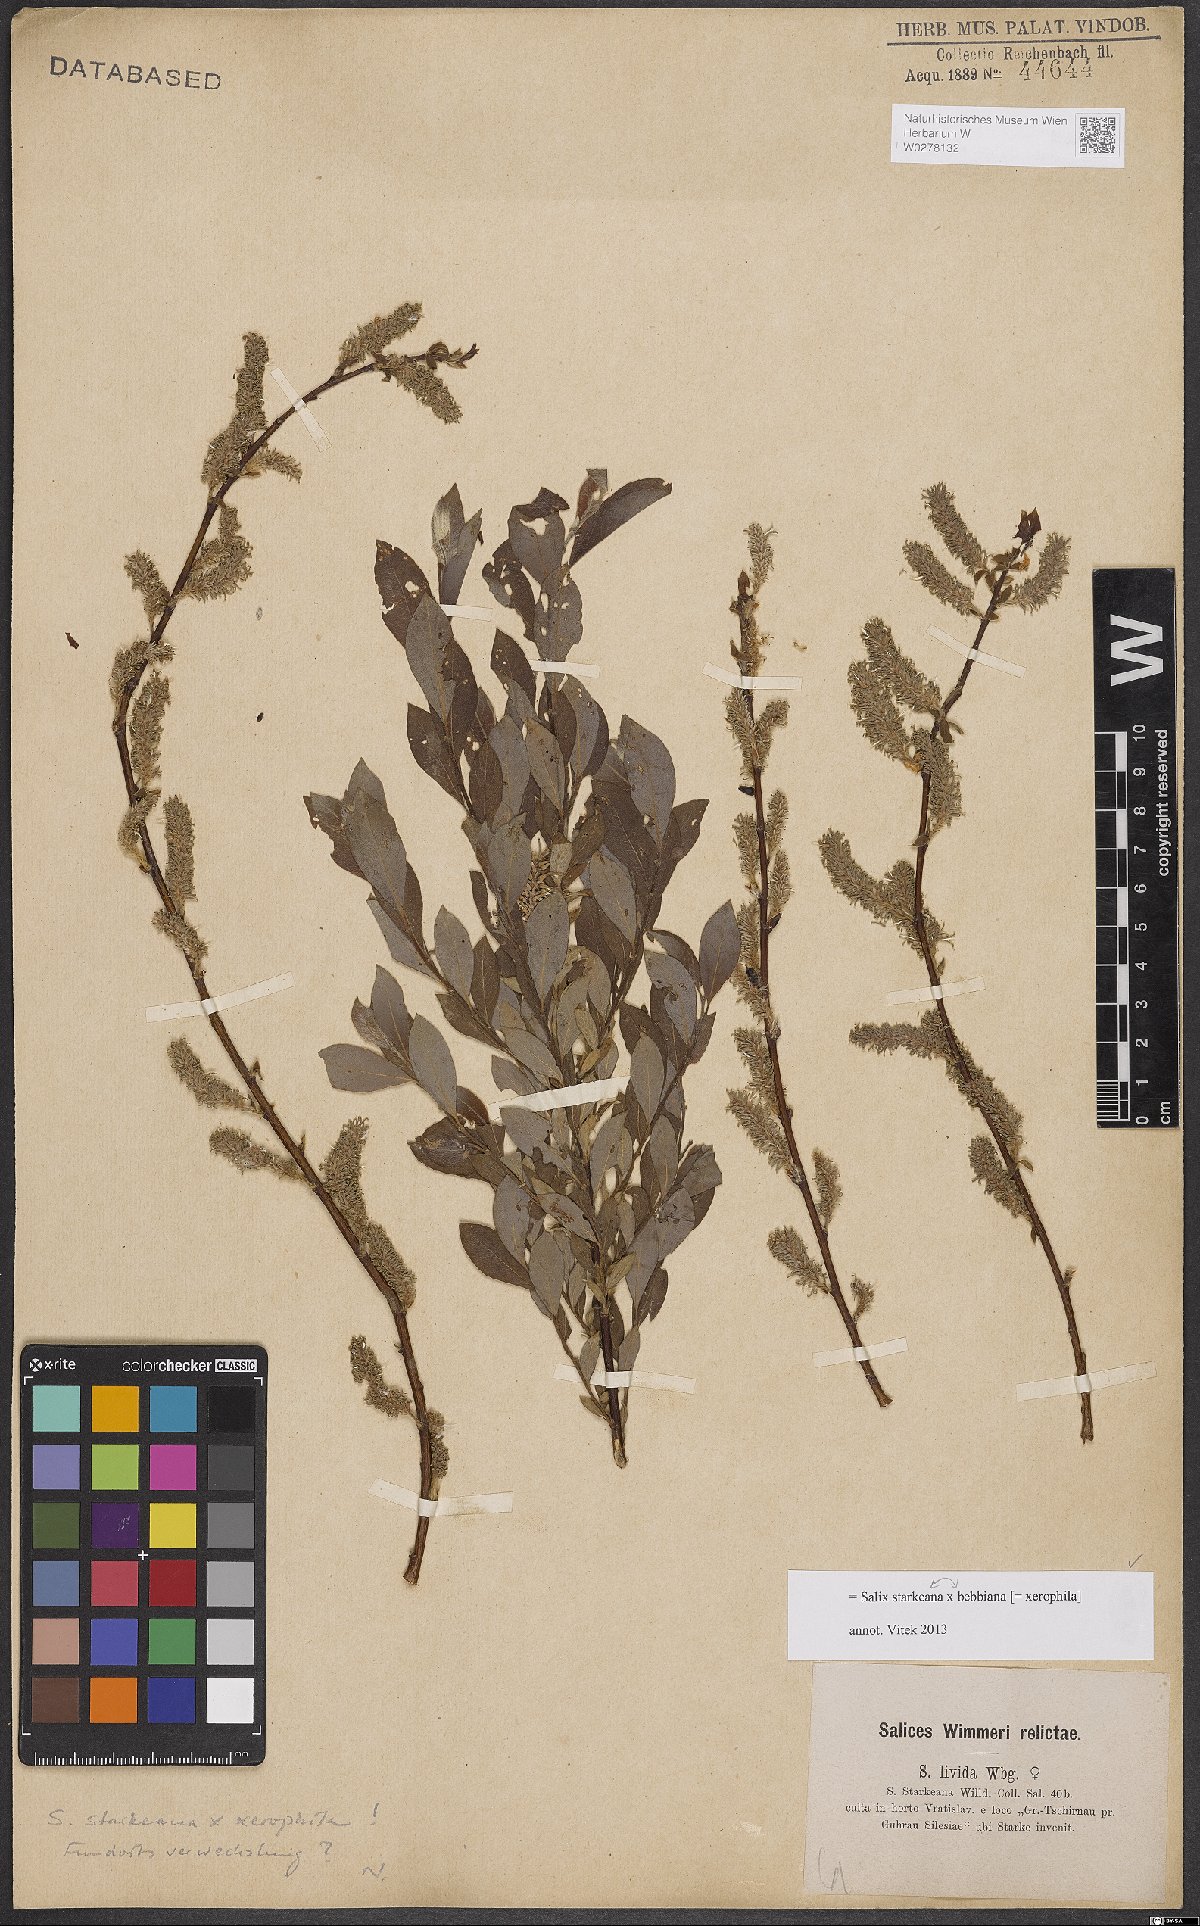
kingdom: Plantae
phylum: Tracheophyta
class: Magnoliopsida
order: Malpighiales
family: Salicaceae
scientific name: Salicaceae
